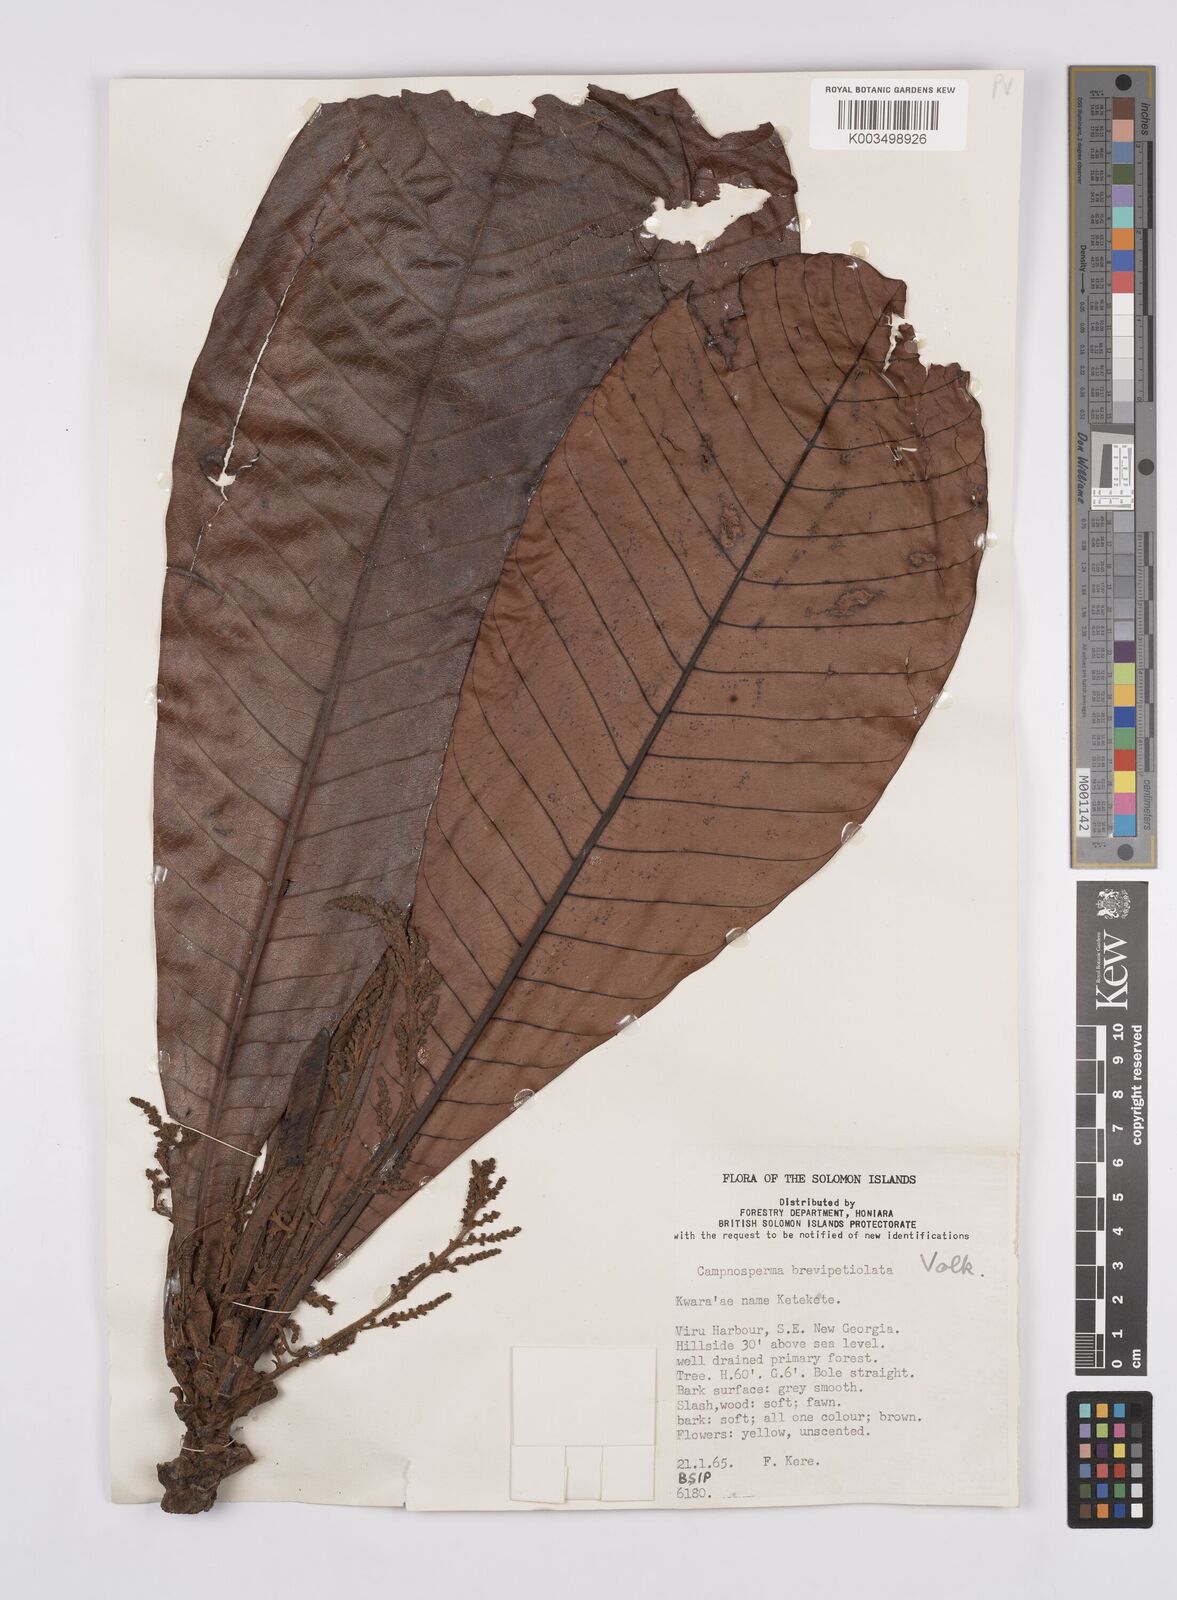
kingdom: Plantae
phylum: Tracheophyta
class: Magnoliopsida
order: Sapindales
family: Anacardiaceae
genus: Campnosperma
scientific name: Campnosperma brevipetiolatum
